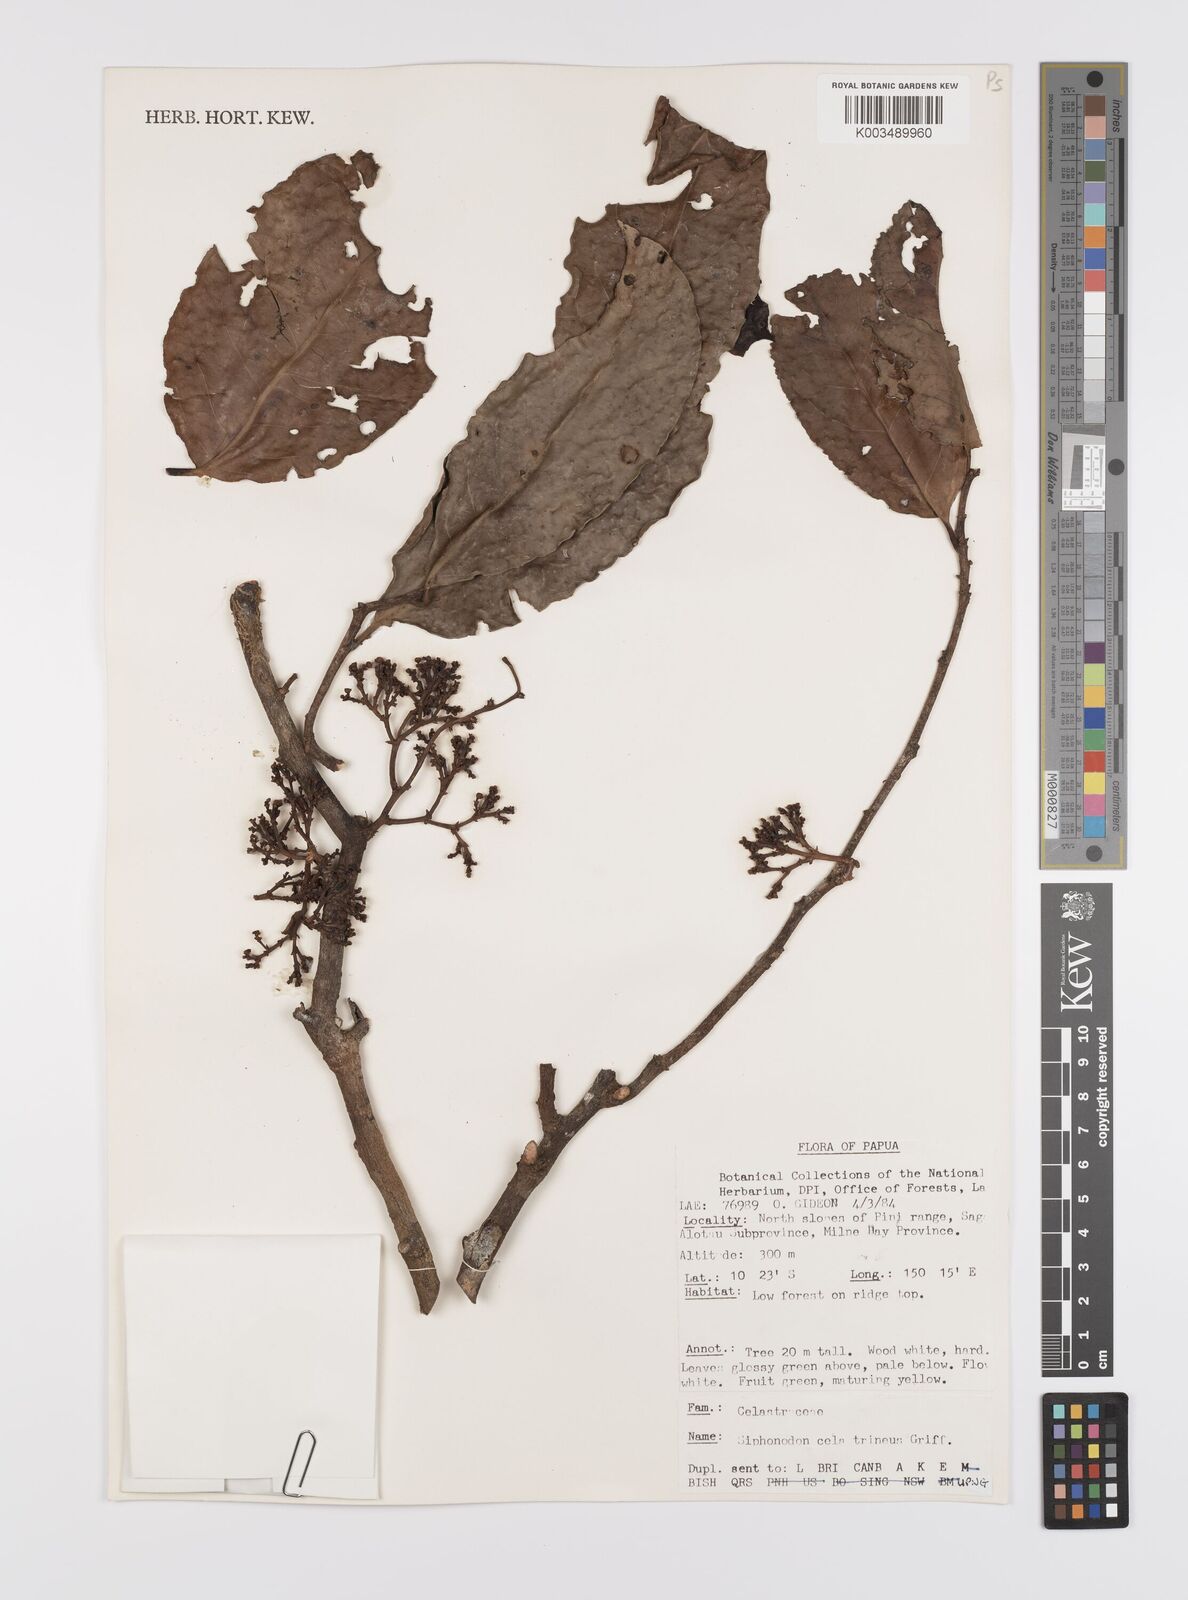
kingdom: Plantae
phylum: Tracheophyta
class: Magnoliopsida
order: Celastrales
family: Celastraceae
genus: Siphonodon
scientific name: Siphonodon celastrineus
